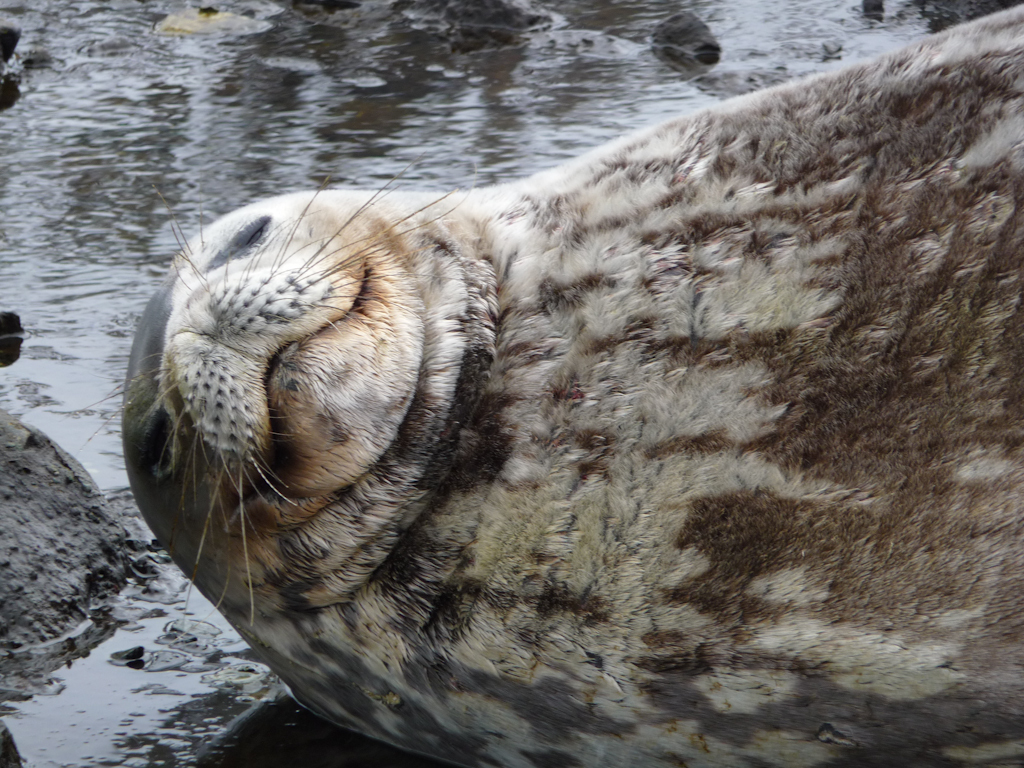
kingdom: Animalia
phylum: Chordata
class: Mammalia
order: Carnivora
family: Phocidae
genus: Leptonychotes
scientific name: Leptonychotes weddellii
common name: Weddell Seal
